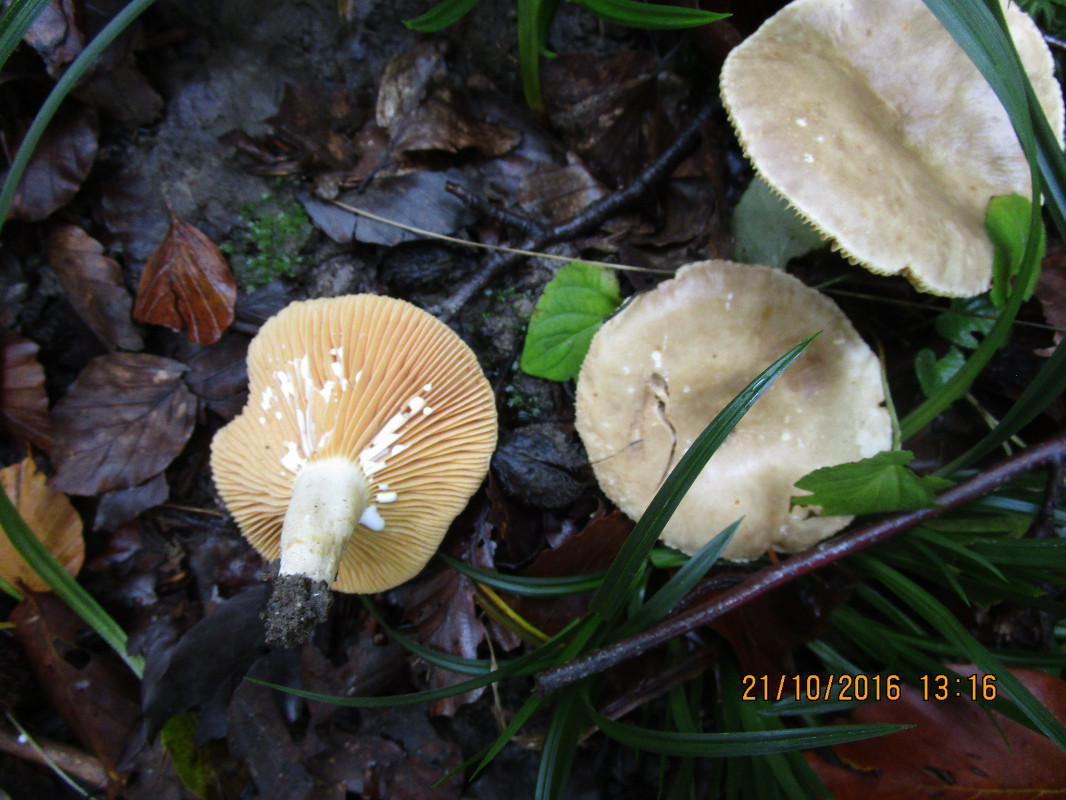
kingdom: Fungi
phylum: Basidiomycota
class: Agaricomycetes
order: Russulales
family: Russulaceae
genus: Lactarius
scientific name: Lactarius azonites
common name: røggrå mælkehat
